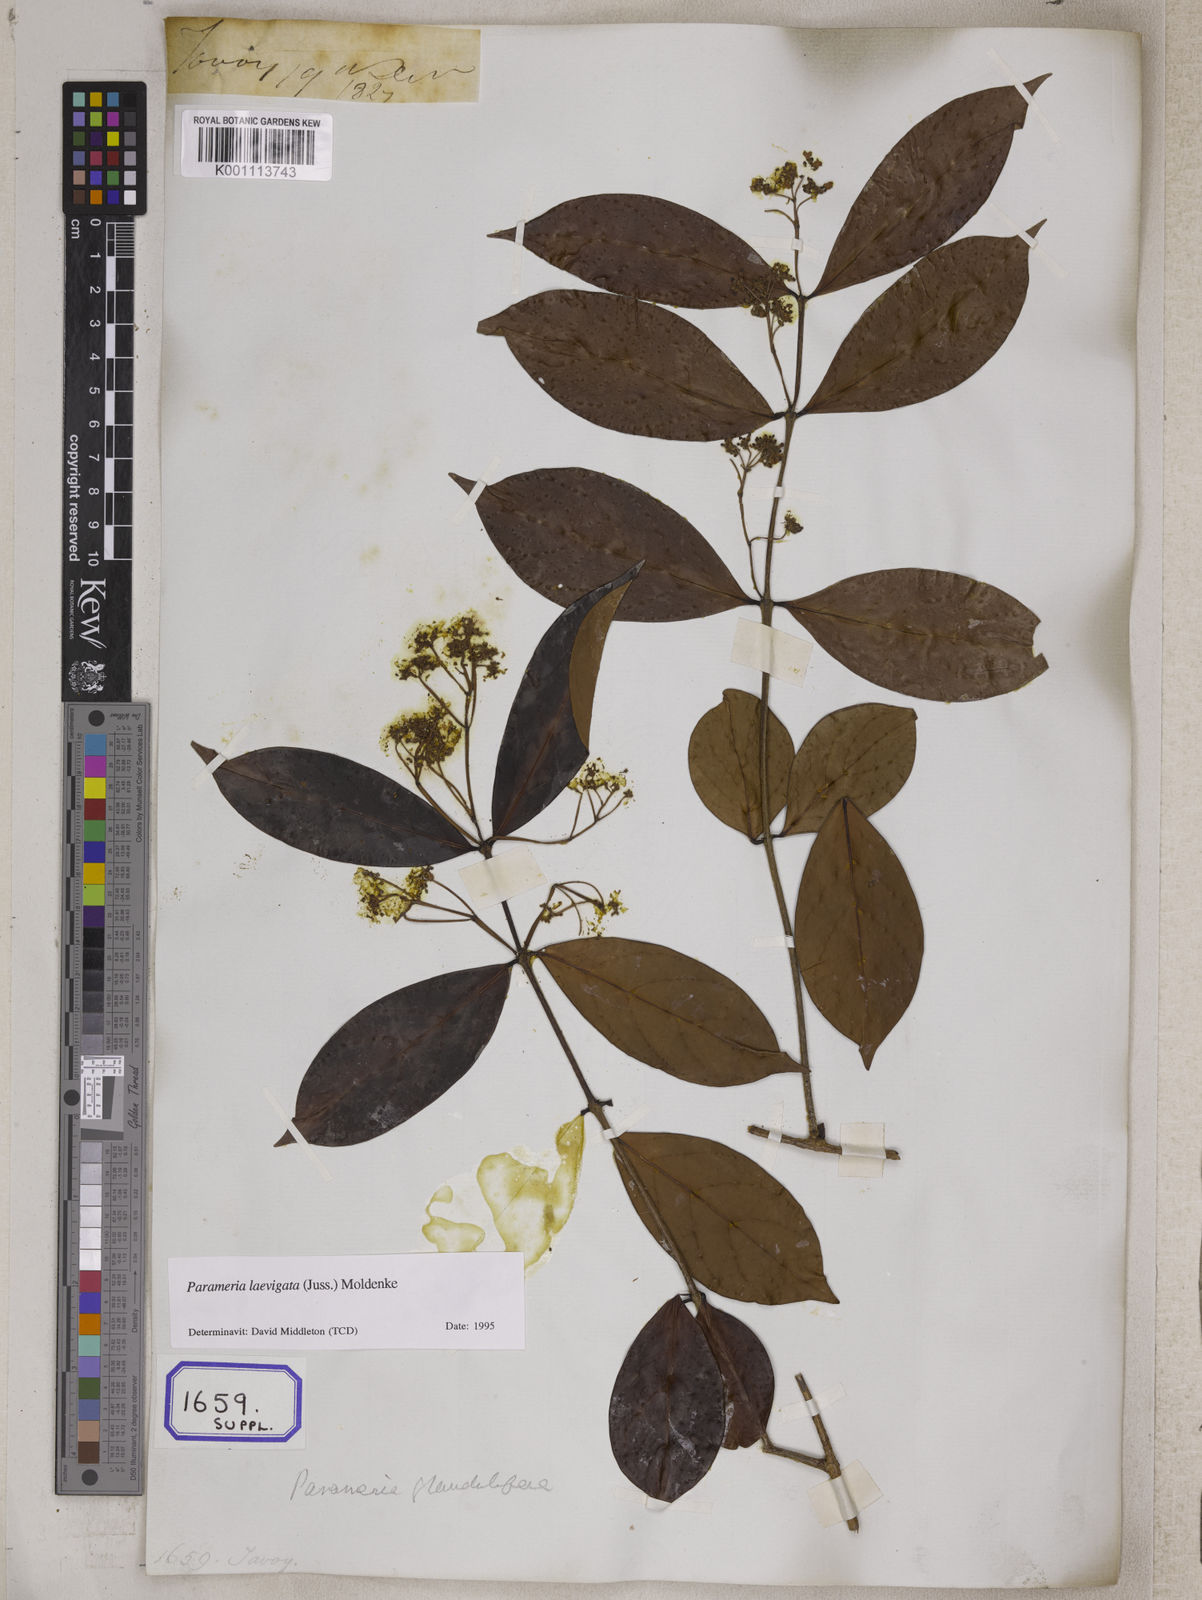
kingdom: Plantae
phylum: Tracheophyta
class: Magnoliopsida
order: Gentianales
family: Apocynaceae
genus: Echites
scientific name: Echites
